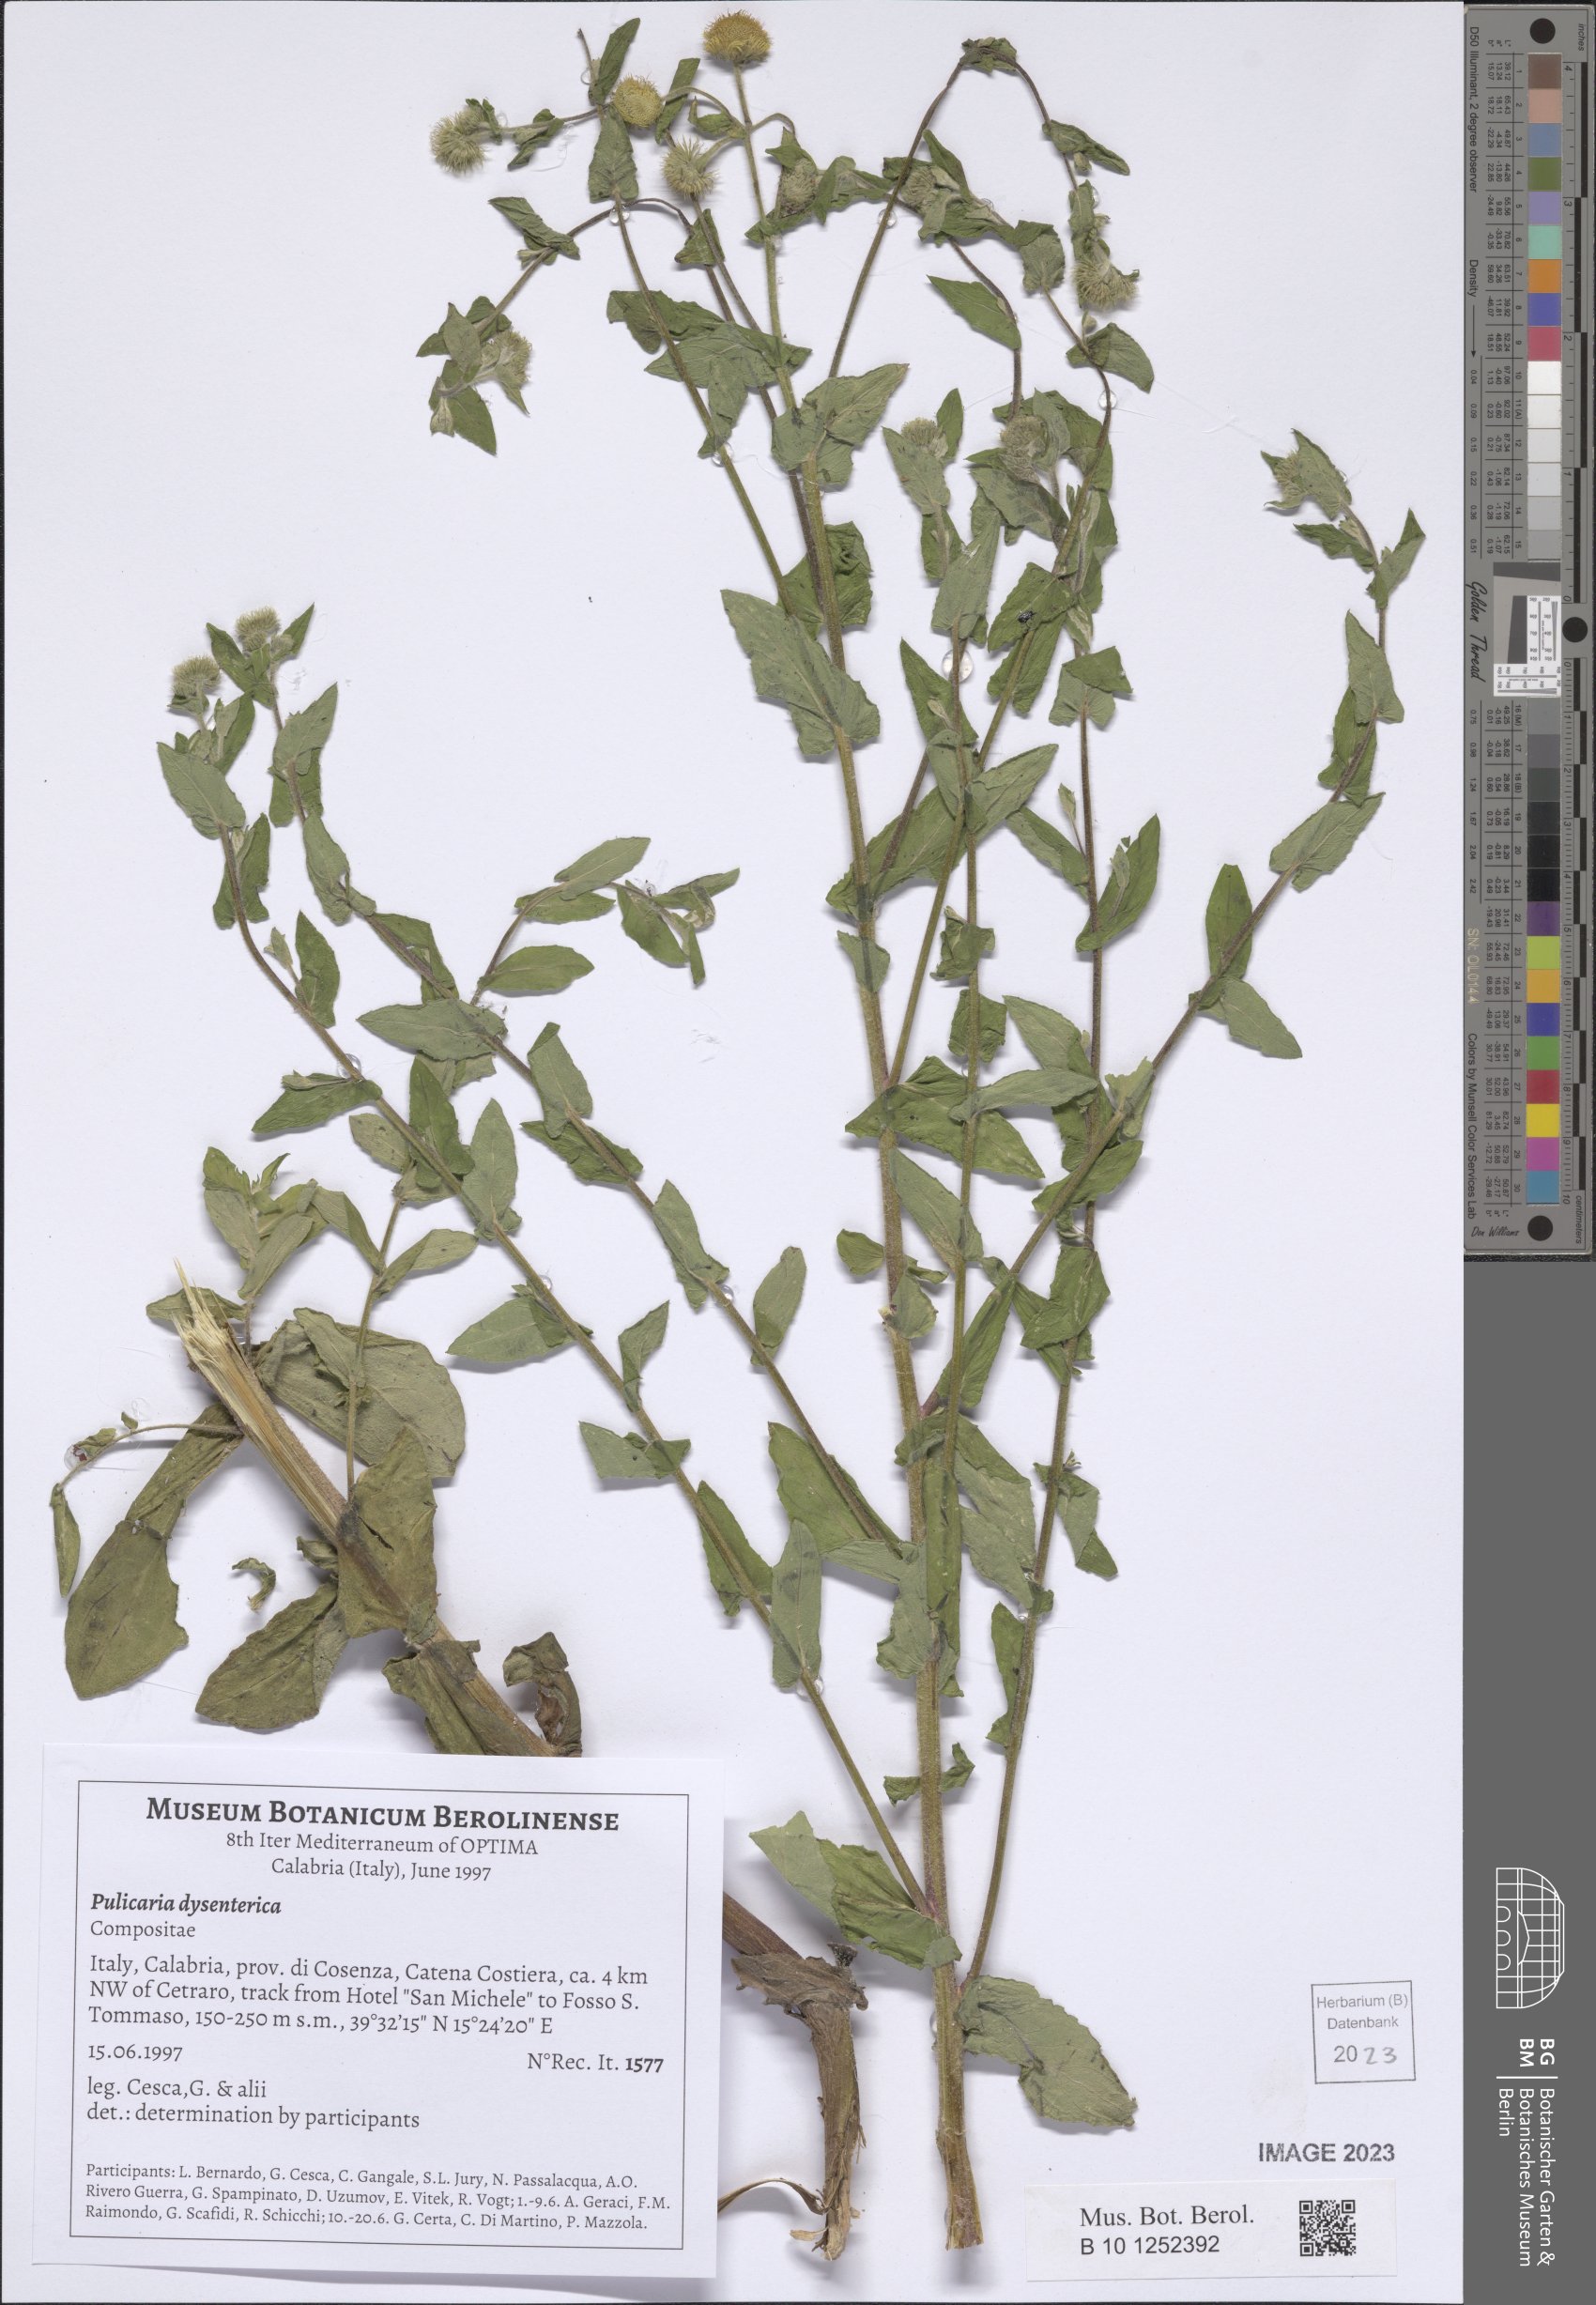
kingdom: Plantae
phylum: Tracheophyta
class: Magnoliopsida
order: Asterales
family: Asteraceae
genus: Pulicaria
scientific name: Pulicaria dysenterica
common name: Common fleabane
